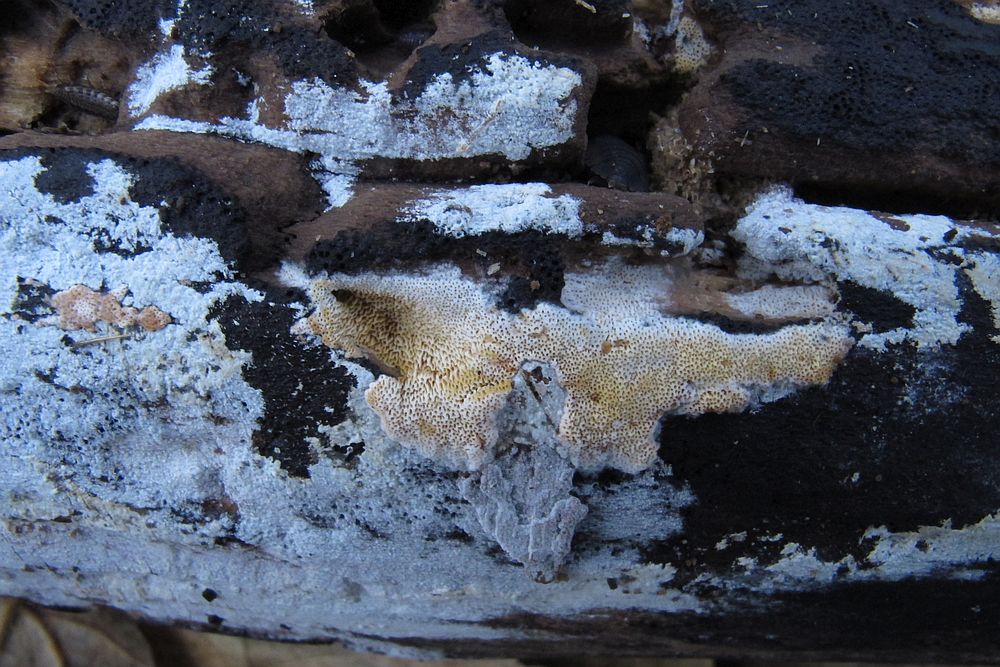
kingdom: Fungi
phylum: Basidiomycota
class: Agaricomycetes
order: Polyporales
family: Irpicaceae
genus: Ceriporia
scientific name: Ceriporia viridans
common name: foranderlig voksporesvamp
